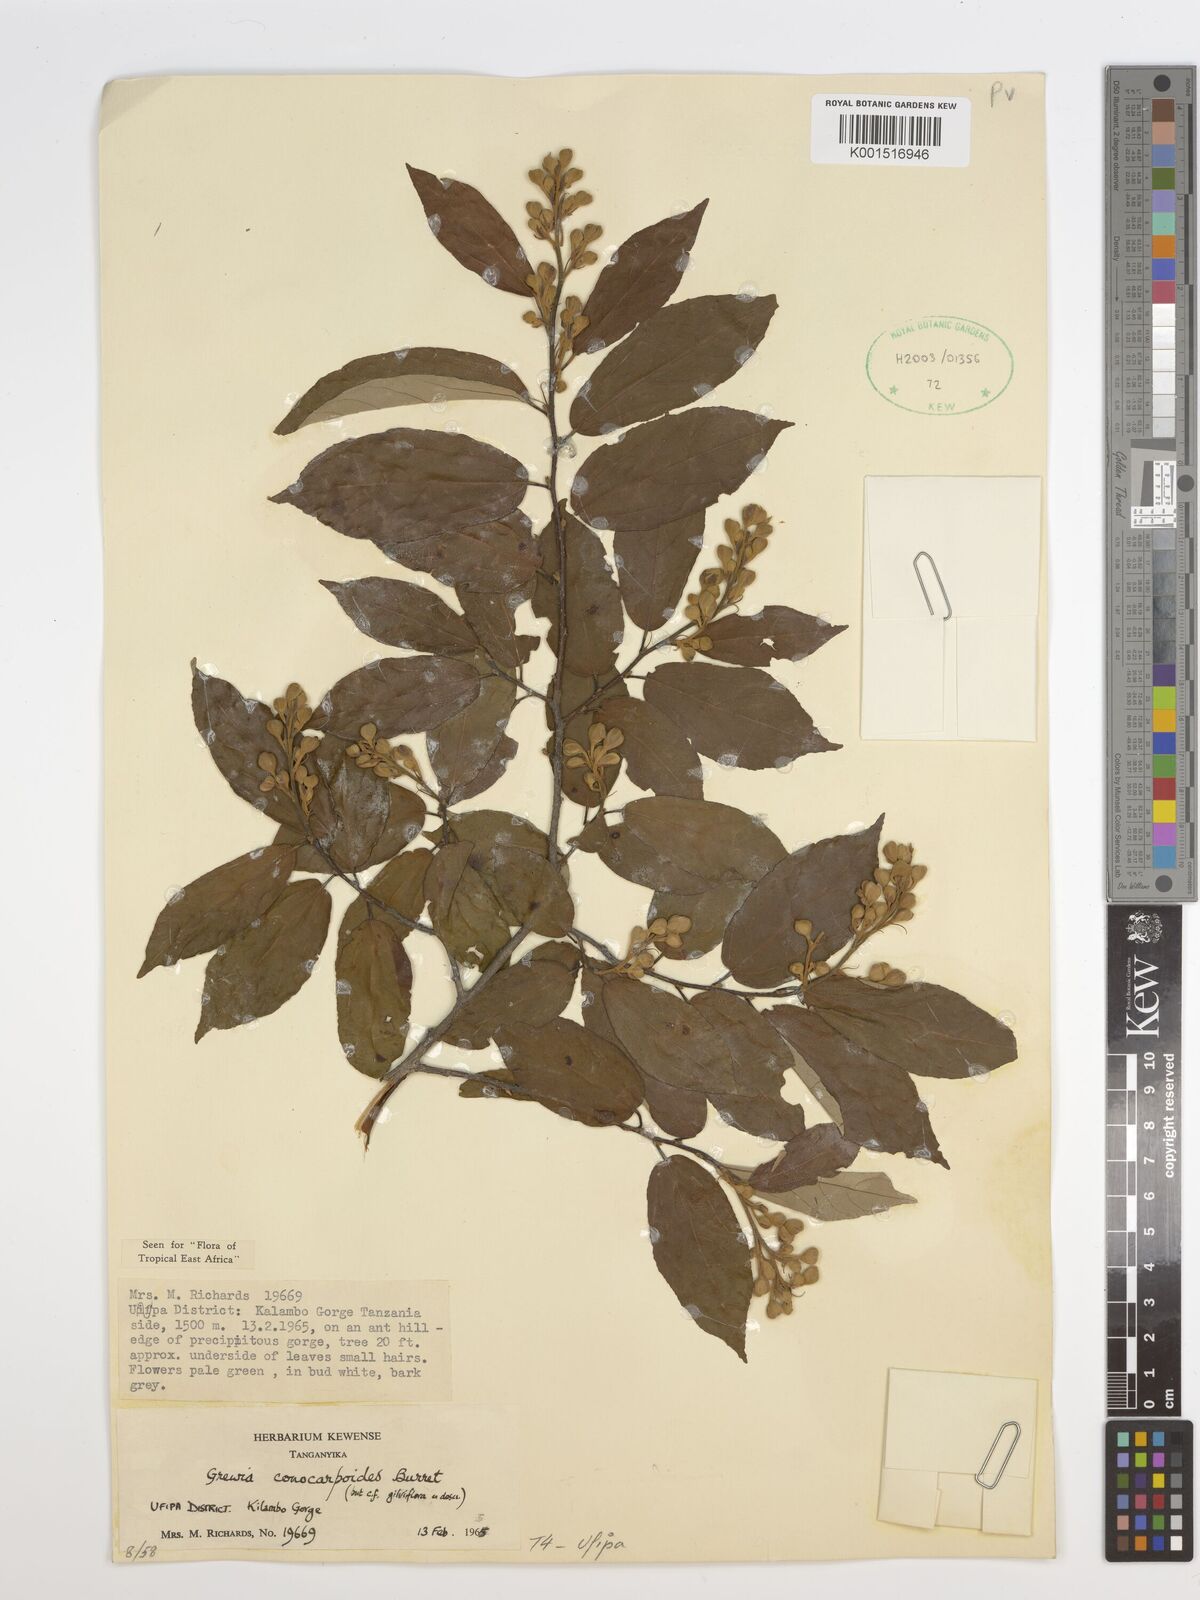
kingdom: Plantae
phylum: Tracheophyta
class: Magnoliopsida
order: Malvales
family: Malvaceae
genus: Microcos
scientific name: Microcos conocarpoides
